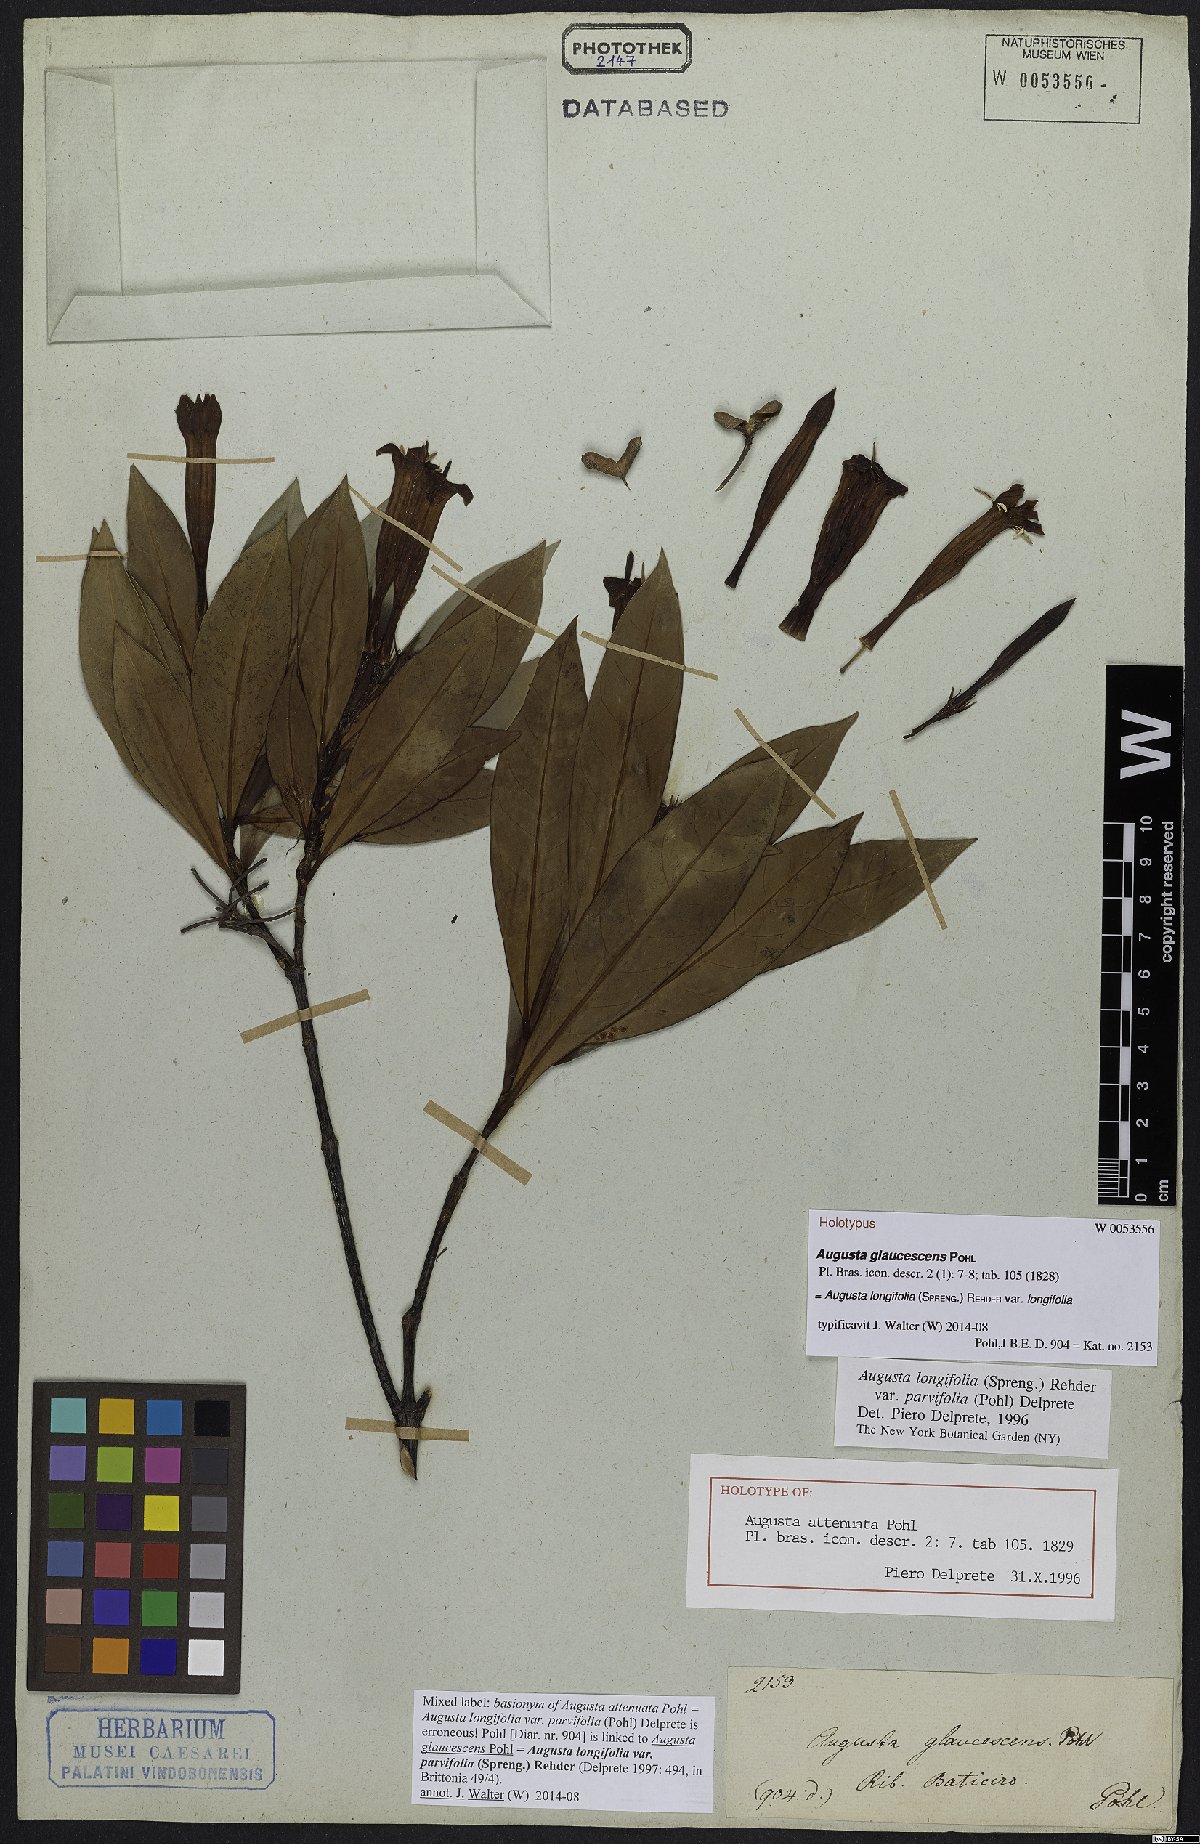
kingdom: Plantae
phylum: Tracheophyta
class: Magnoliopsida
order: Gentianales
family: Rubiaceae
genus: Augusta
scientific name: Augusta longifolia
